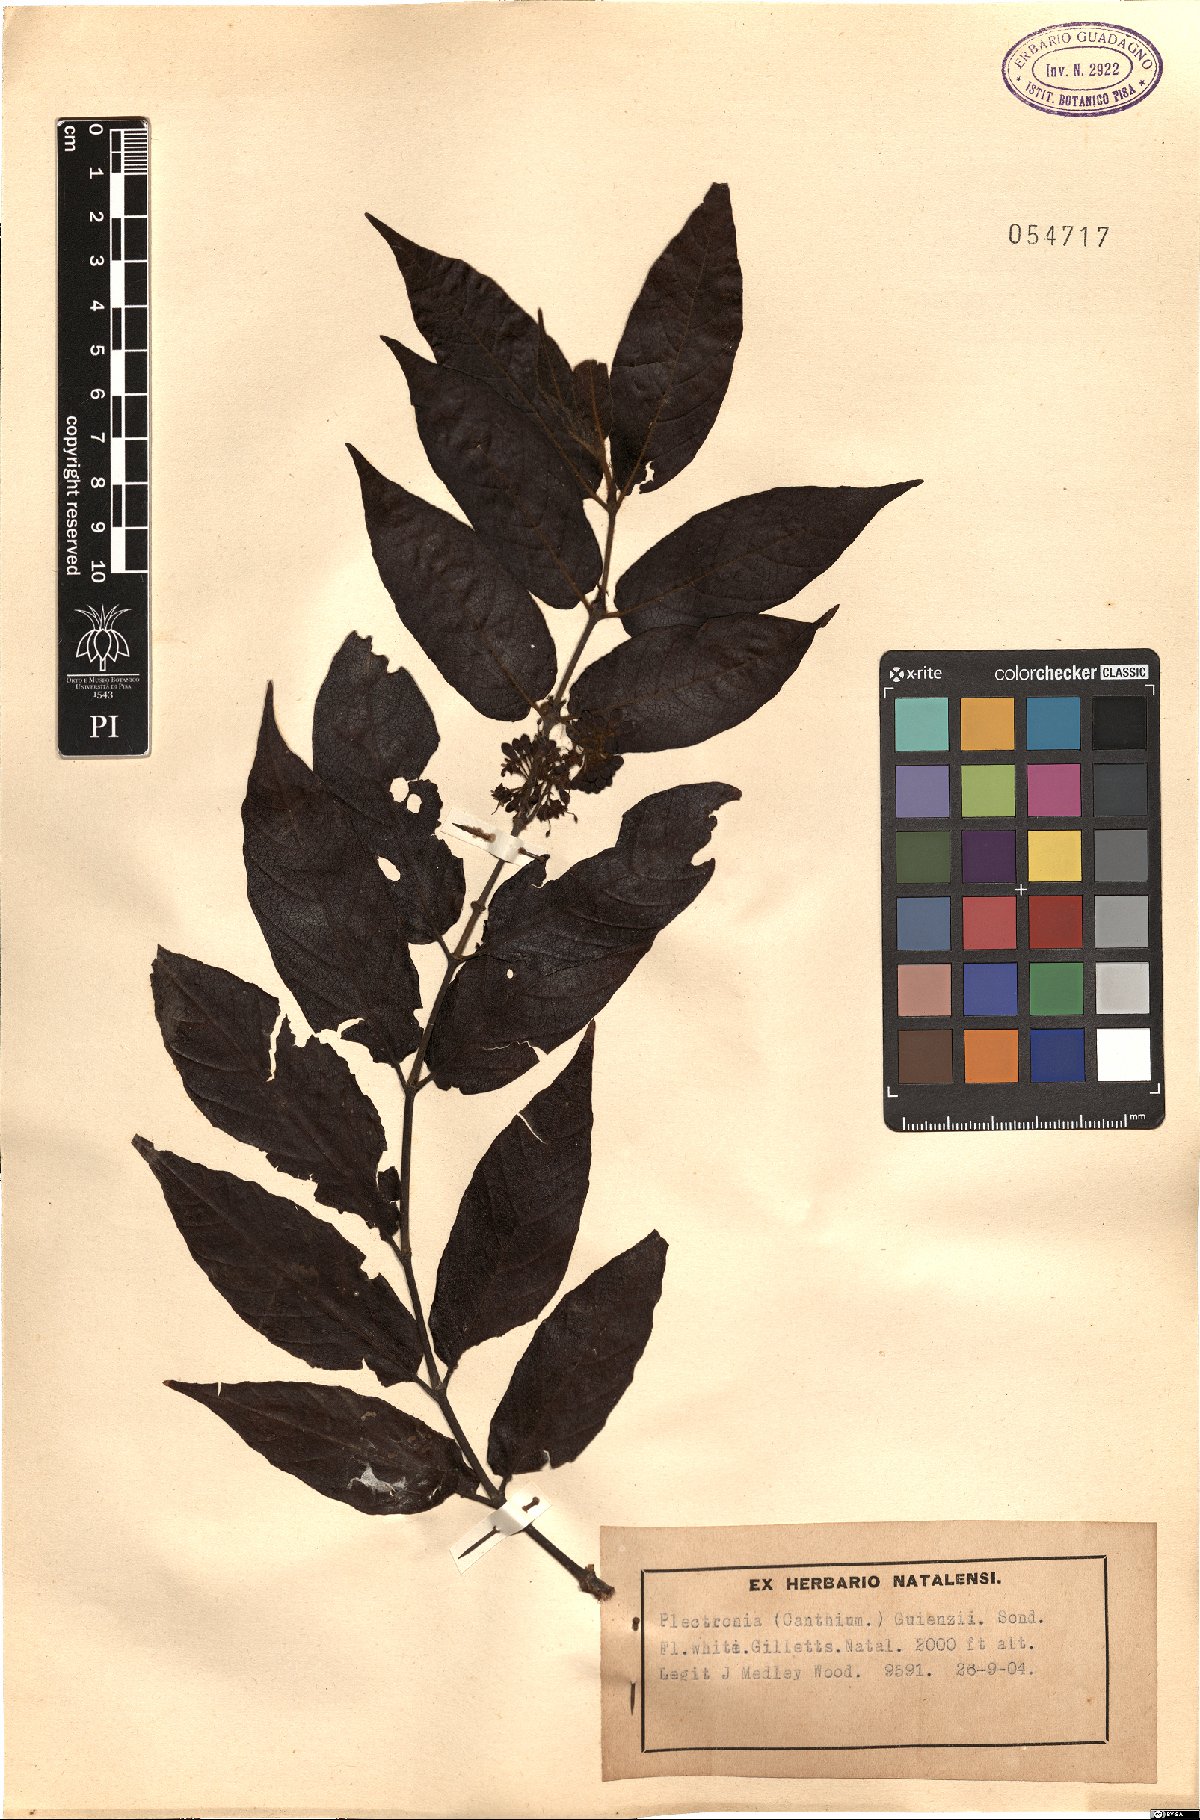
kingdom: Plantae
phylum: Tracheophyta
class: Magnoliopsida
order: Gentianales
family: Rubiaceae
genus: Keetia
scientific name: Keetia gueinzii
